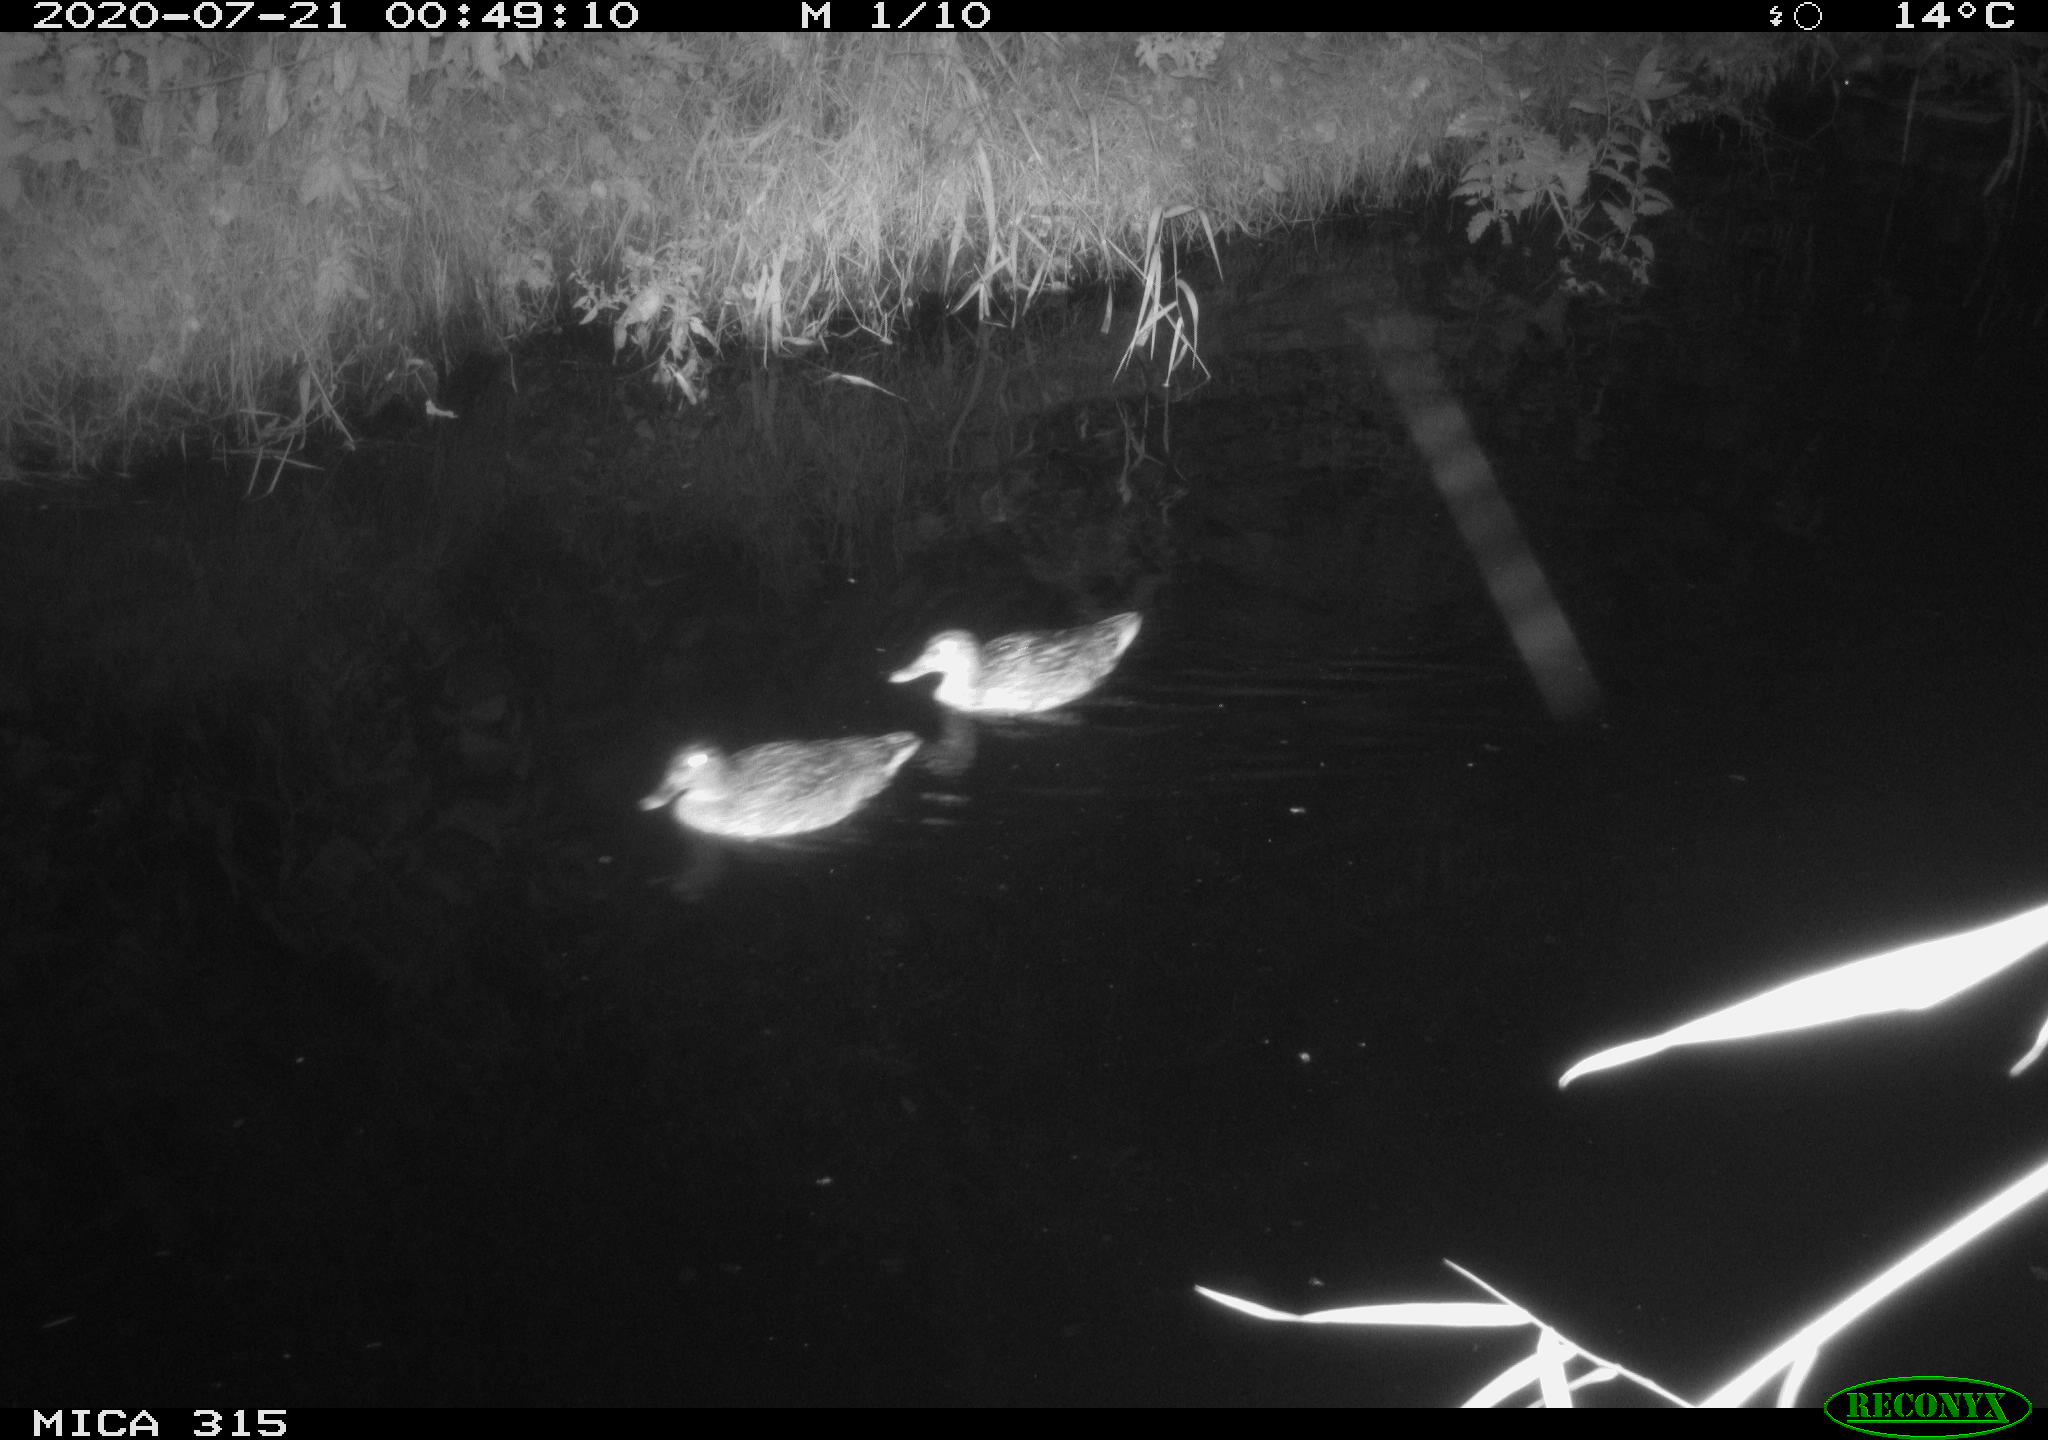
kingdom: Animalia
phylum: Chordata
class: Aves
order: Anseriformes
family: Anatidae
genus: Anas
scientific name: Anas platyrhynchos
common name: Mallard
